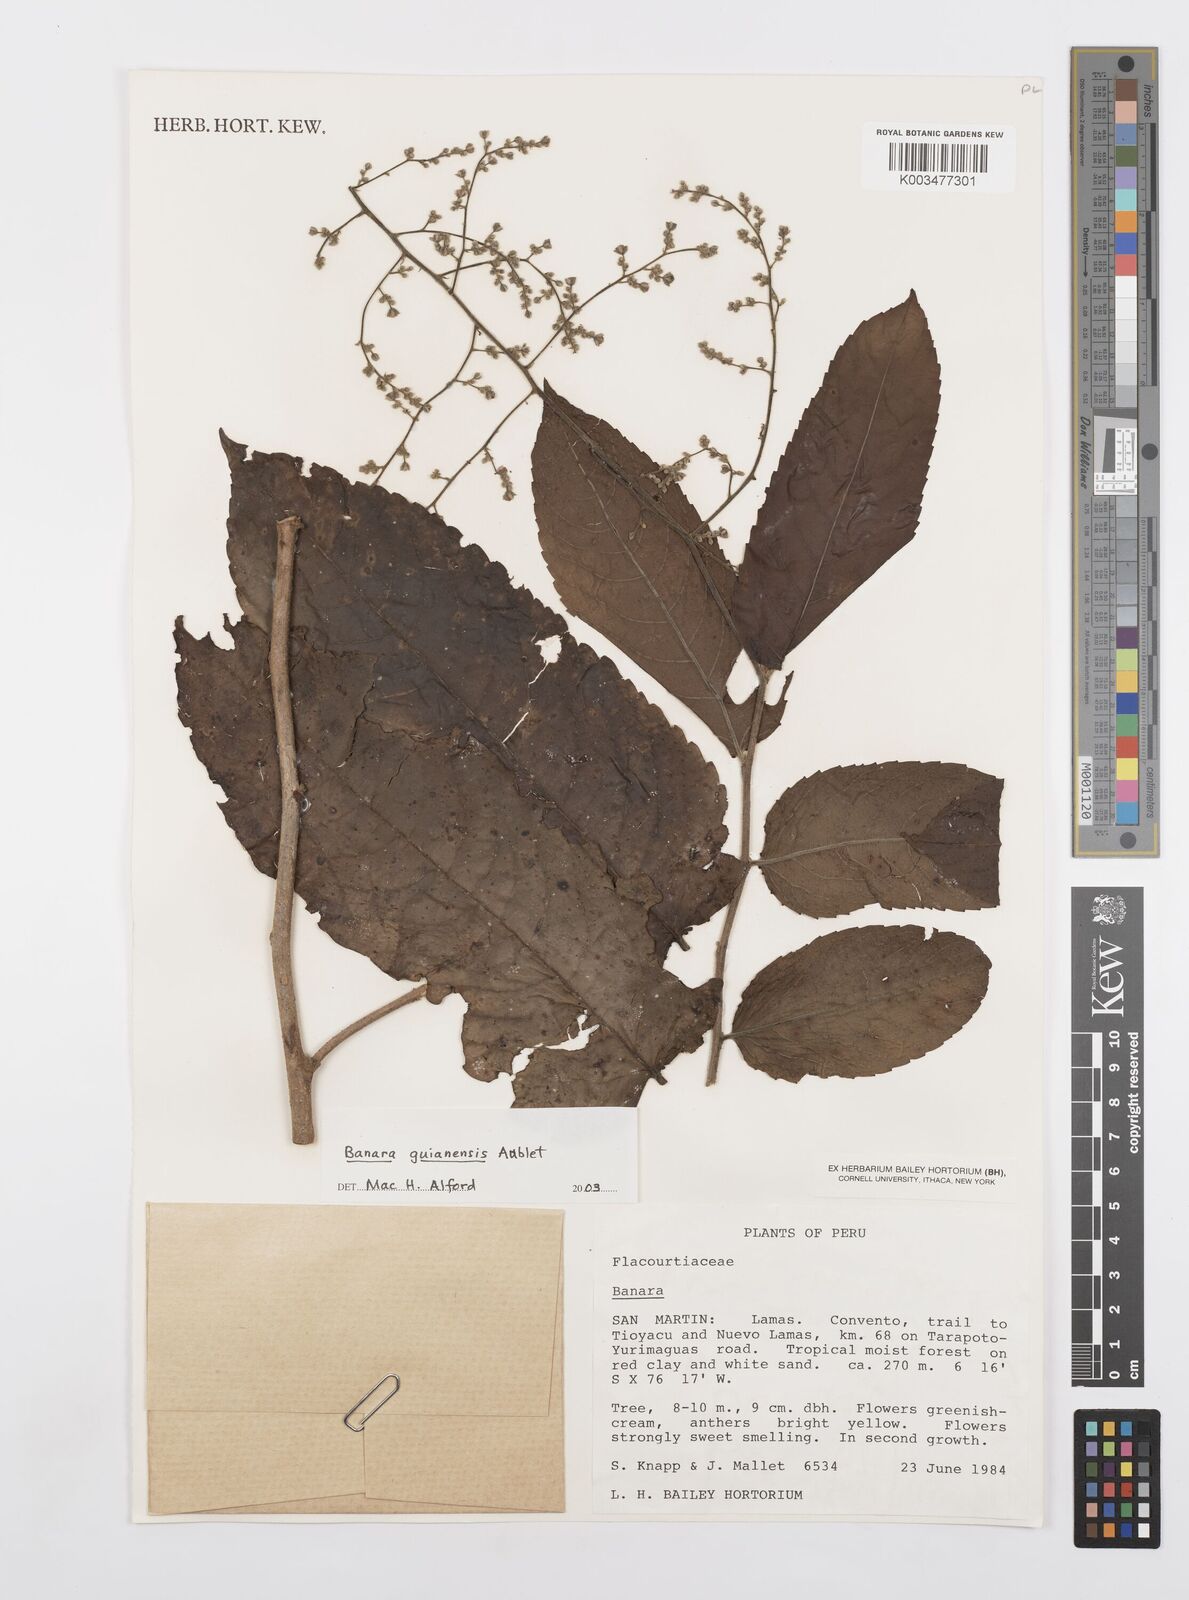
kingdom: Plantae
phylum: Tracheophyta
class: Magnoliopsida
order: Malpighiales
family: Salicaceae
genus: Banara
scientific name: Banara guianensis
